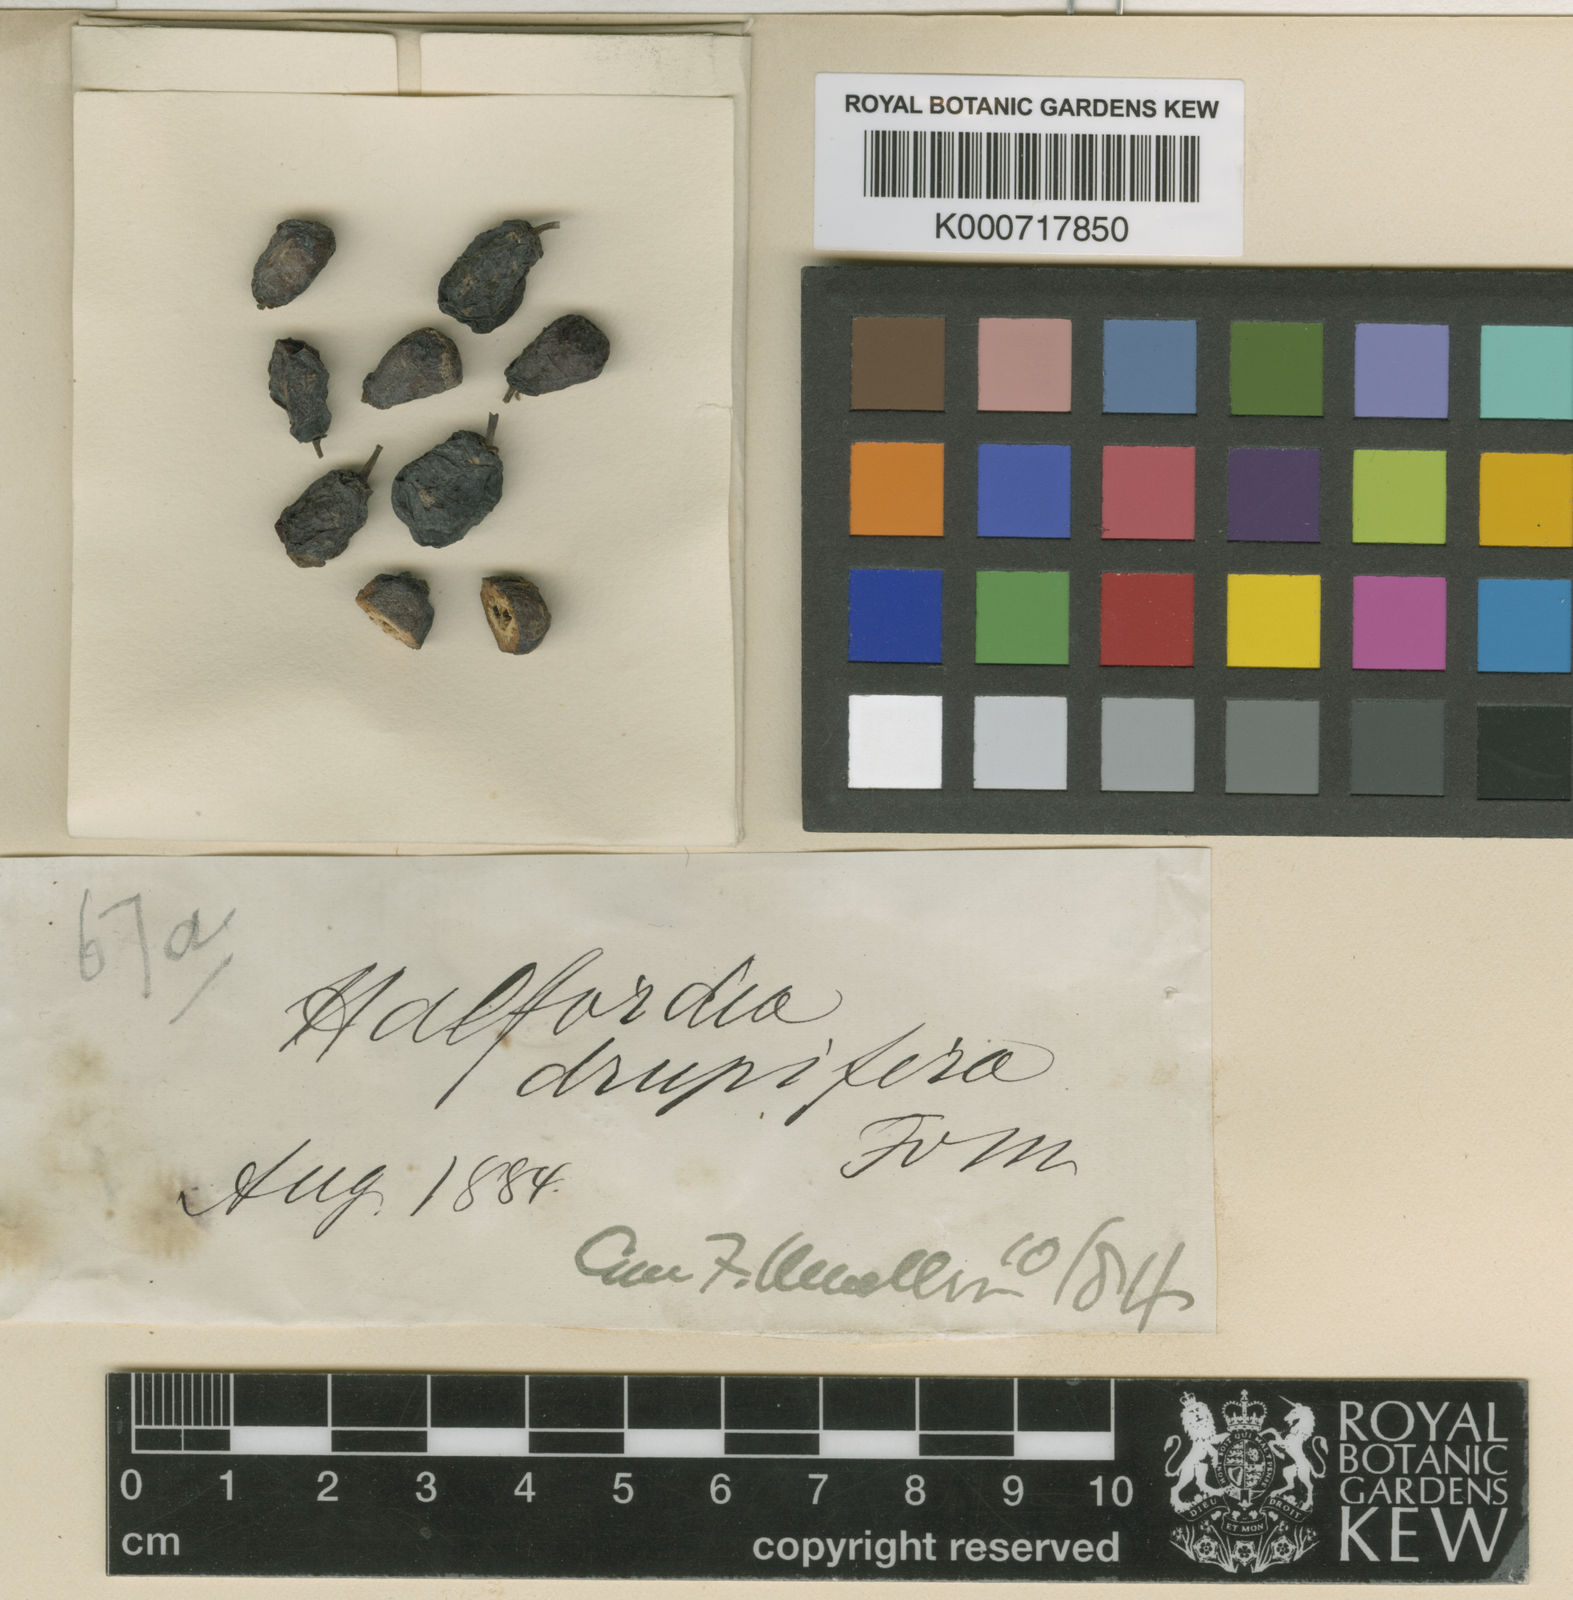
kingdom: Plantae
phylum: Tracheophyta
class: Magnoliopsida
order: Sapindales
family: Rutaceae
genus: Halfordia
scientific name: Halfordia kendack
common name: Southern ghittoe
